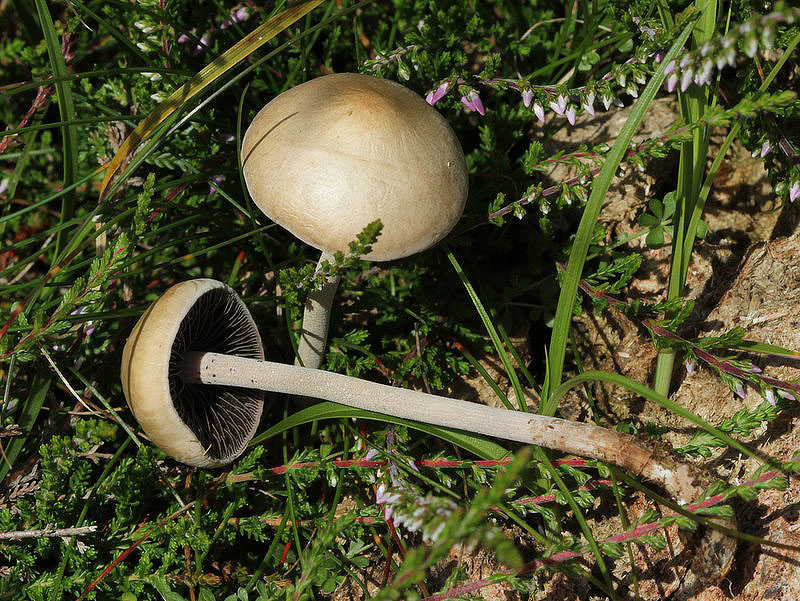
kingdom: Fungi
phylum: Basidiomycota
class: Agaricomycetes
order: Agaricales
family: Bolbitiaceae
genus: Panaeolus
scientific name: Panaeolus subfirmus
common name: fælled-glanshat
